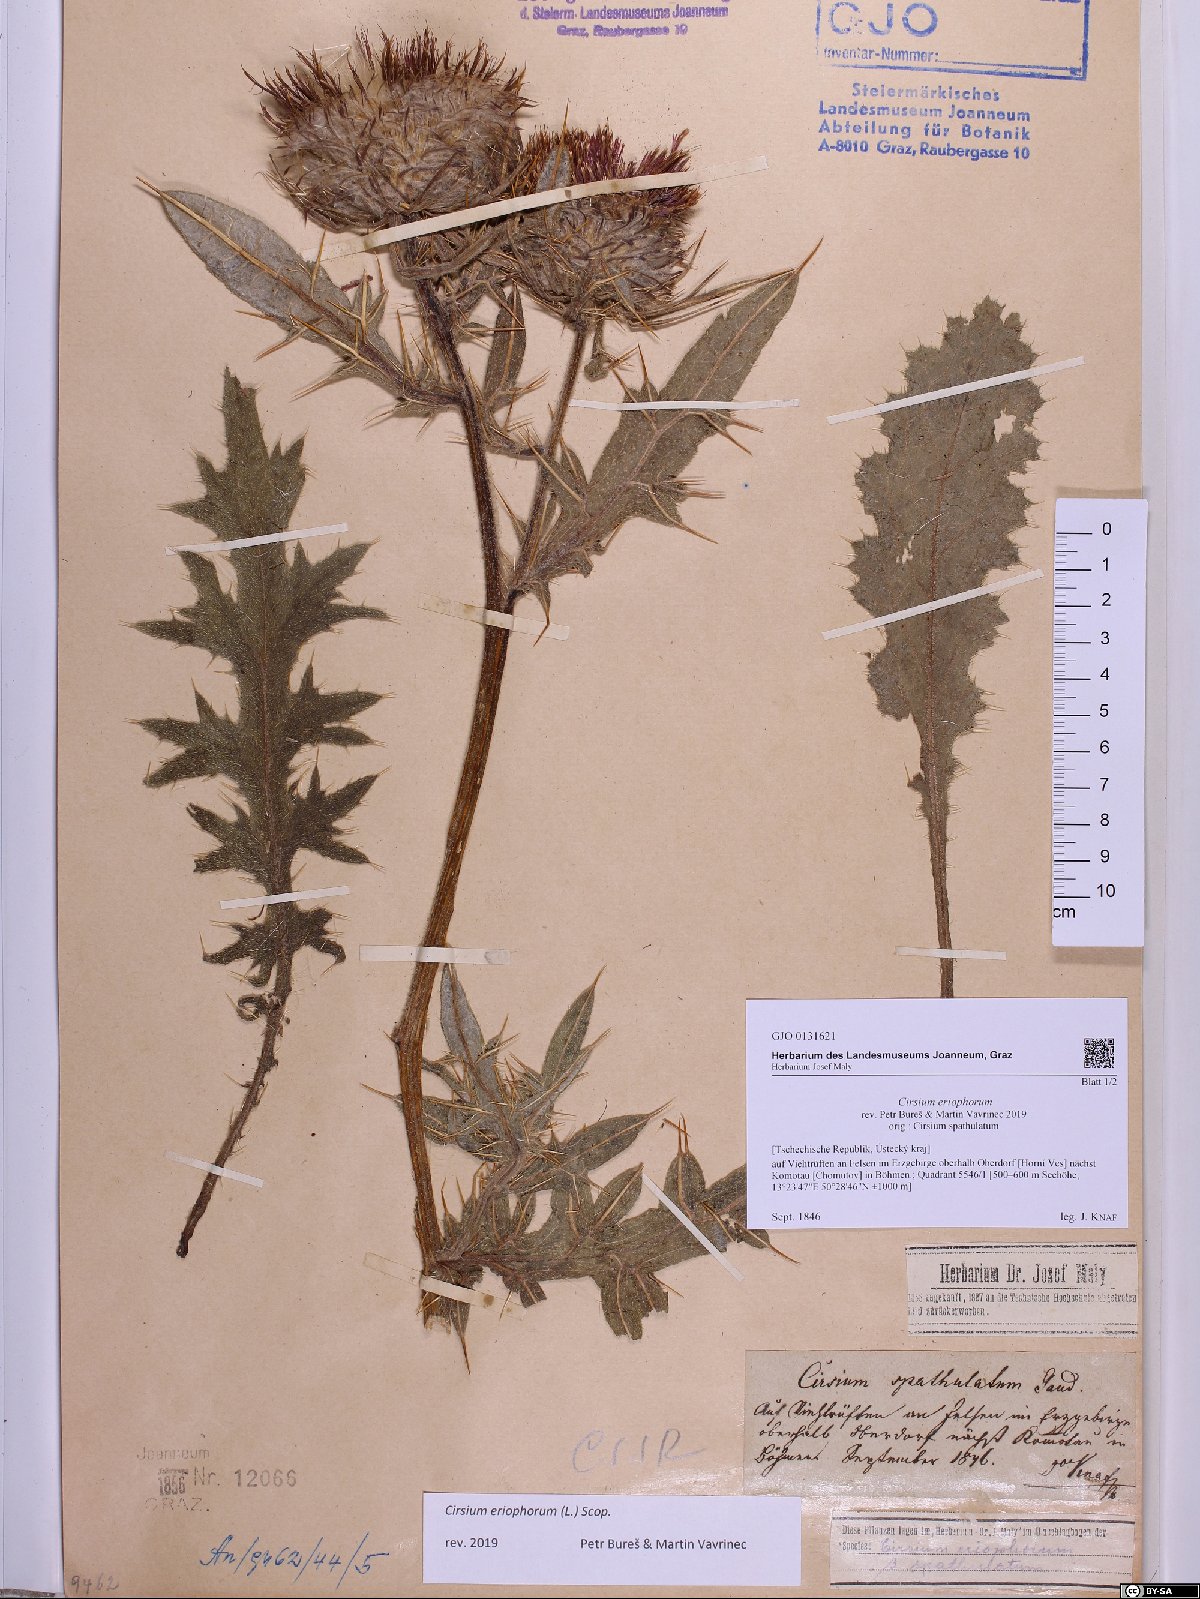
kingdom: Plantae
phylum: Tracheophyta
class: Magnoliopsida
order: Asterales
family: Asteraceae
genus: Lophiolepis
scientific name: Lophiolepis eriophora
